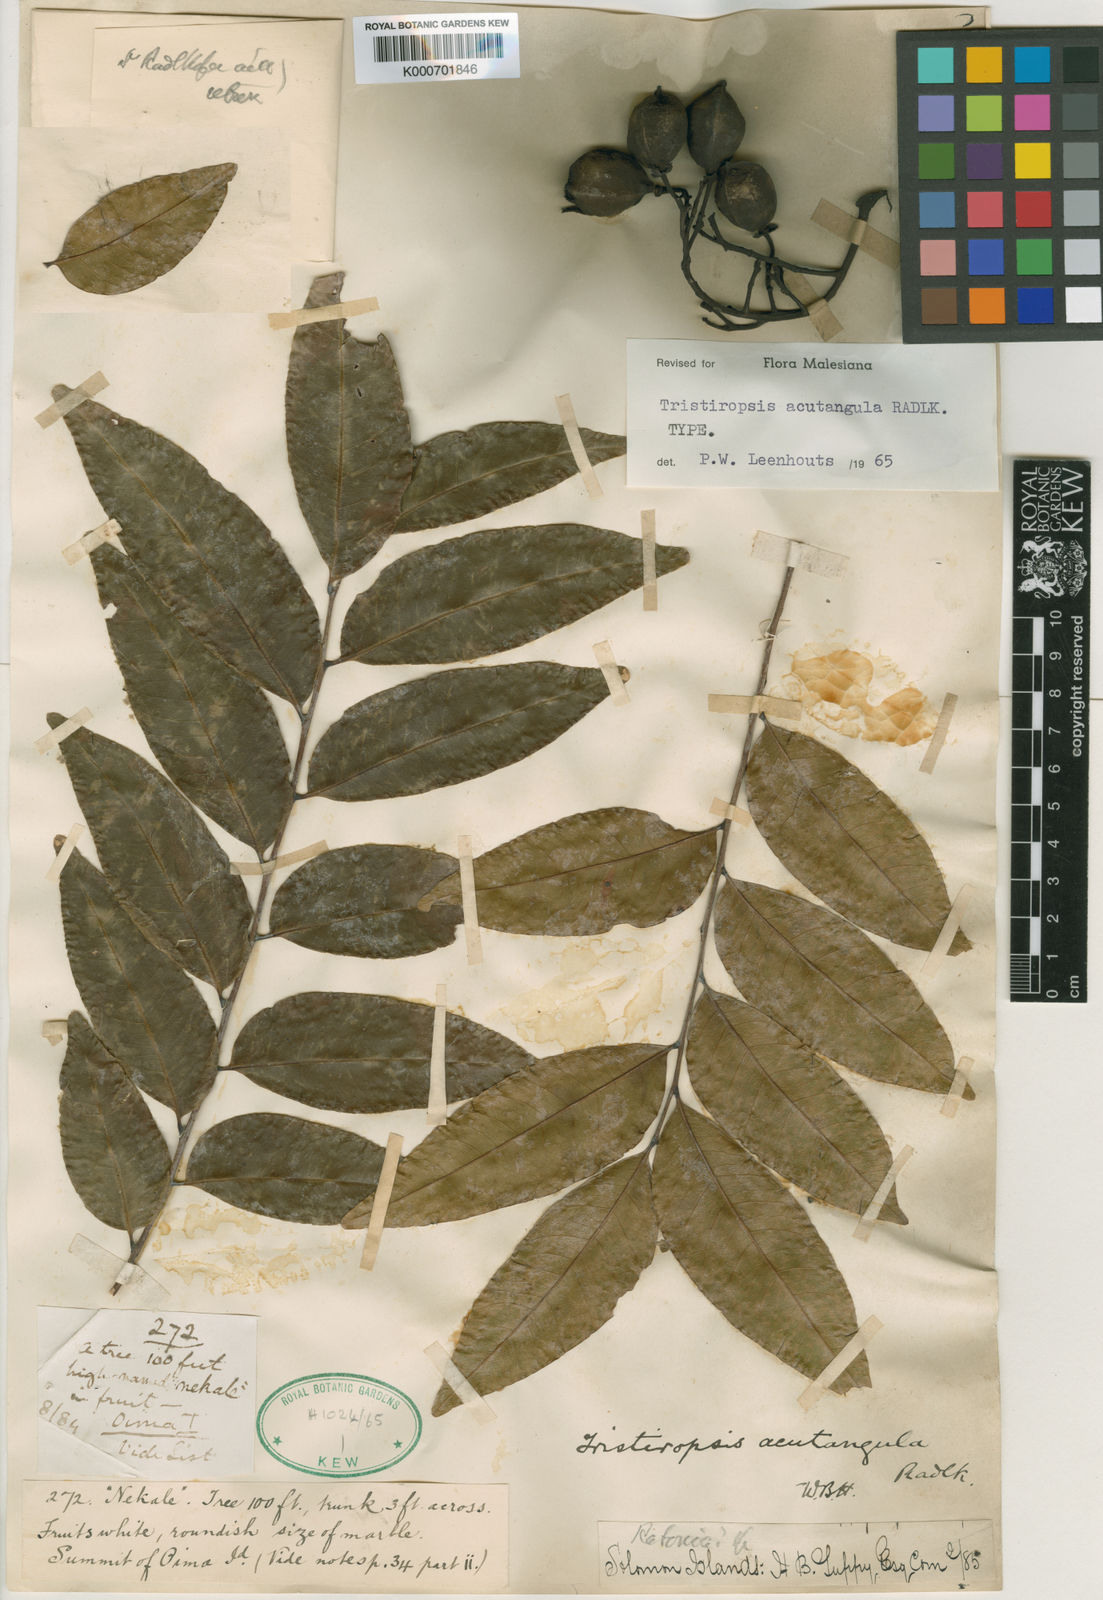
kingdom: Plantae
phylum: Tracheophyta
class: Magnoliopsida
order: Sapindales
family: Sapindaceae
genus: Tristiropsis
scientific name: Tristiropsis acutangula
